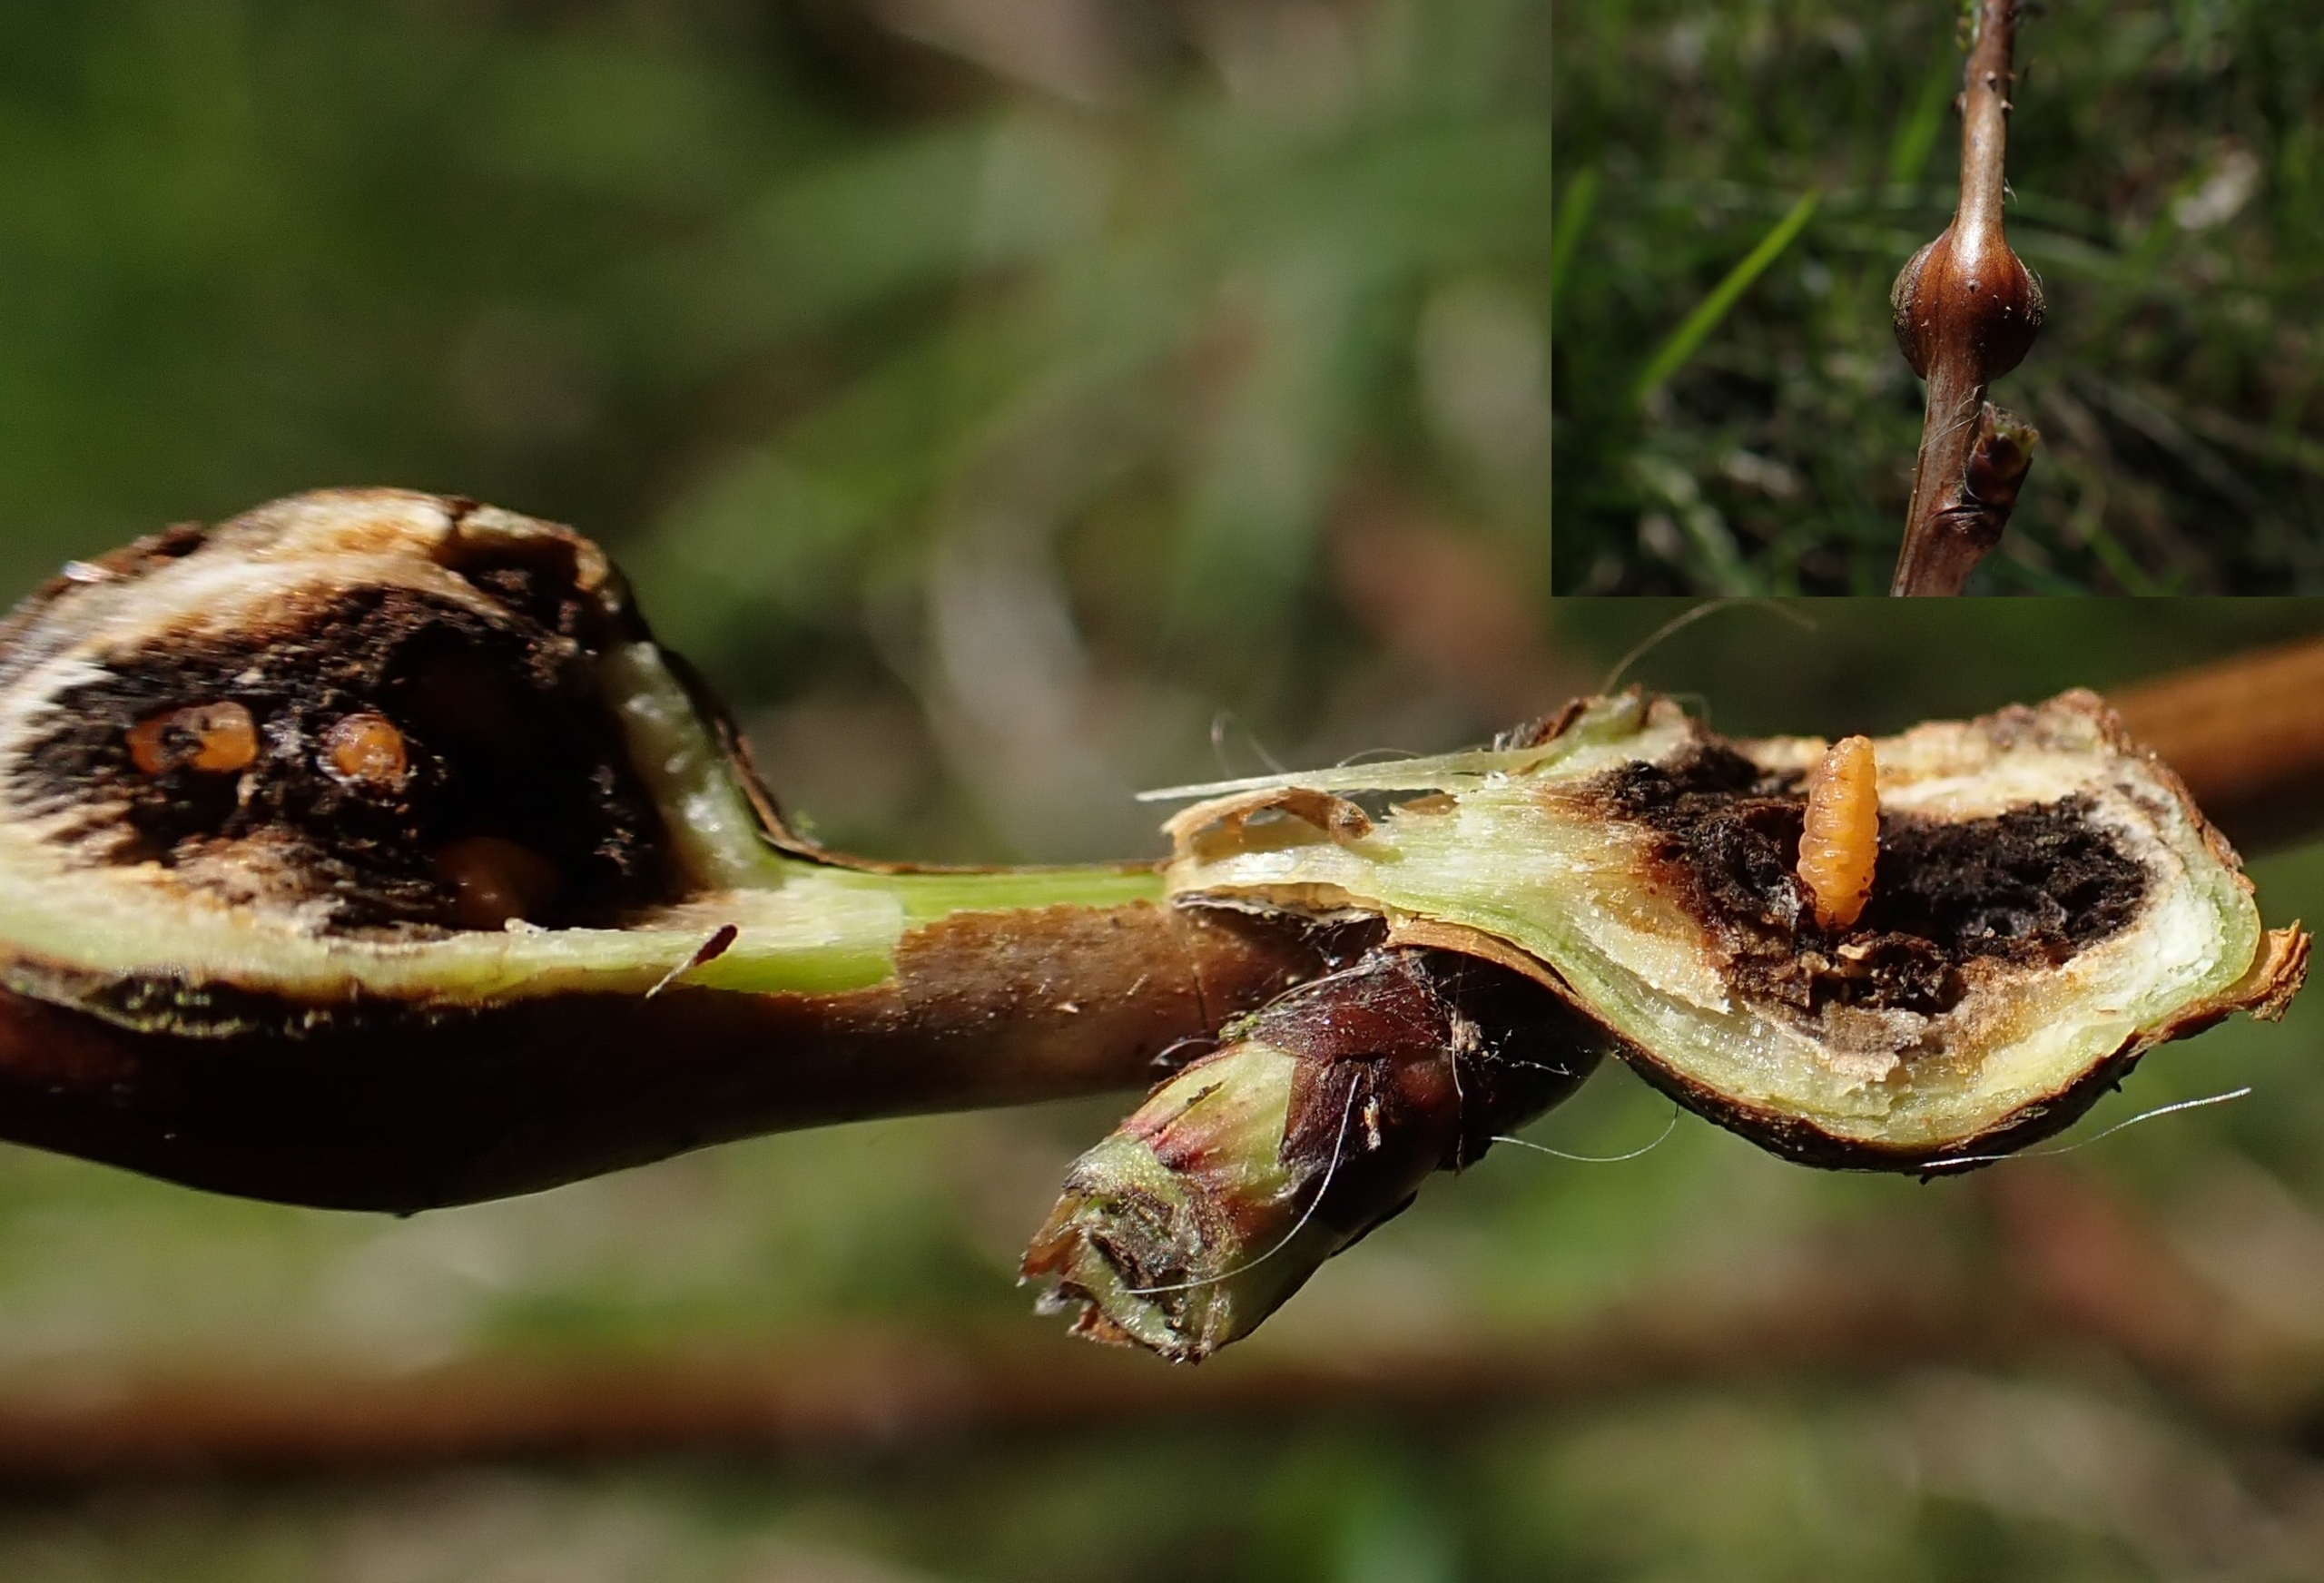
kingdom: Animalia
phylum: Arthropoda
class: Insecta
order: Diptera
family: Cecidomyiidae
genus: Lasioptera
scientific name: Lasioptera rubi
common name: Hindbærstængelgalmyg
